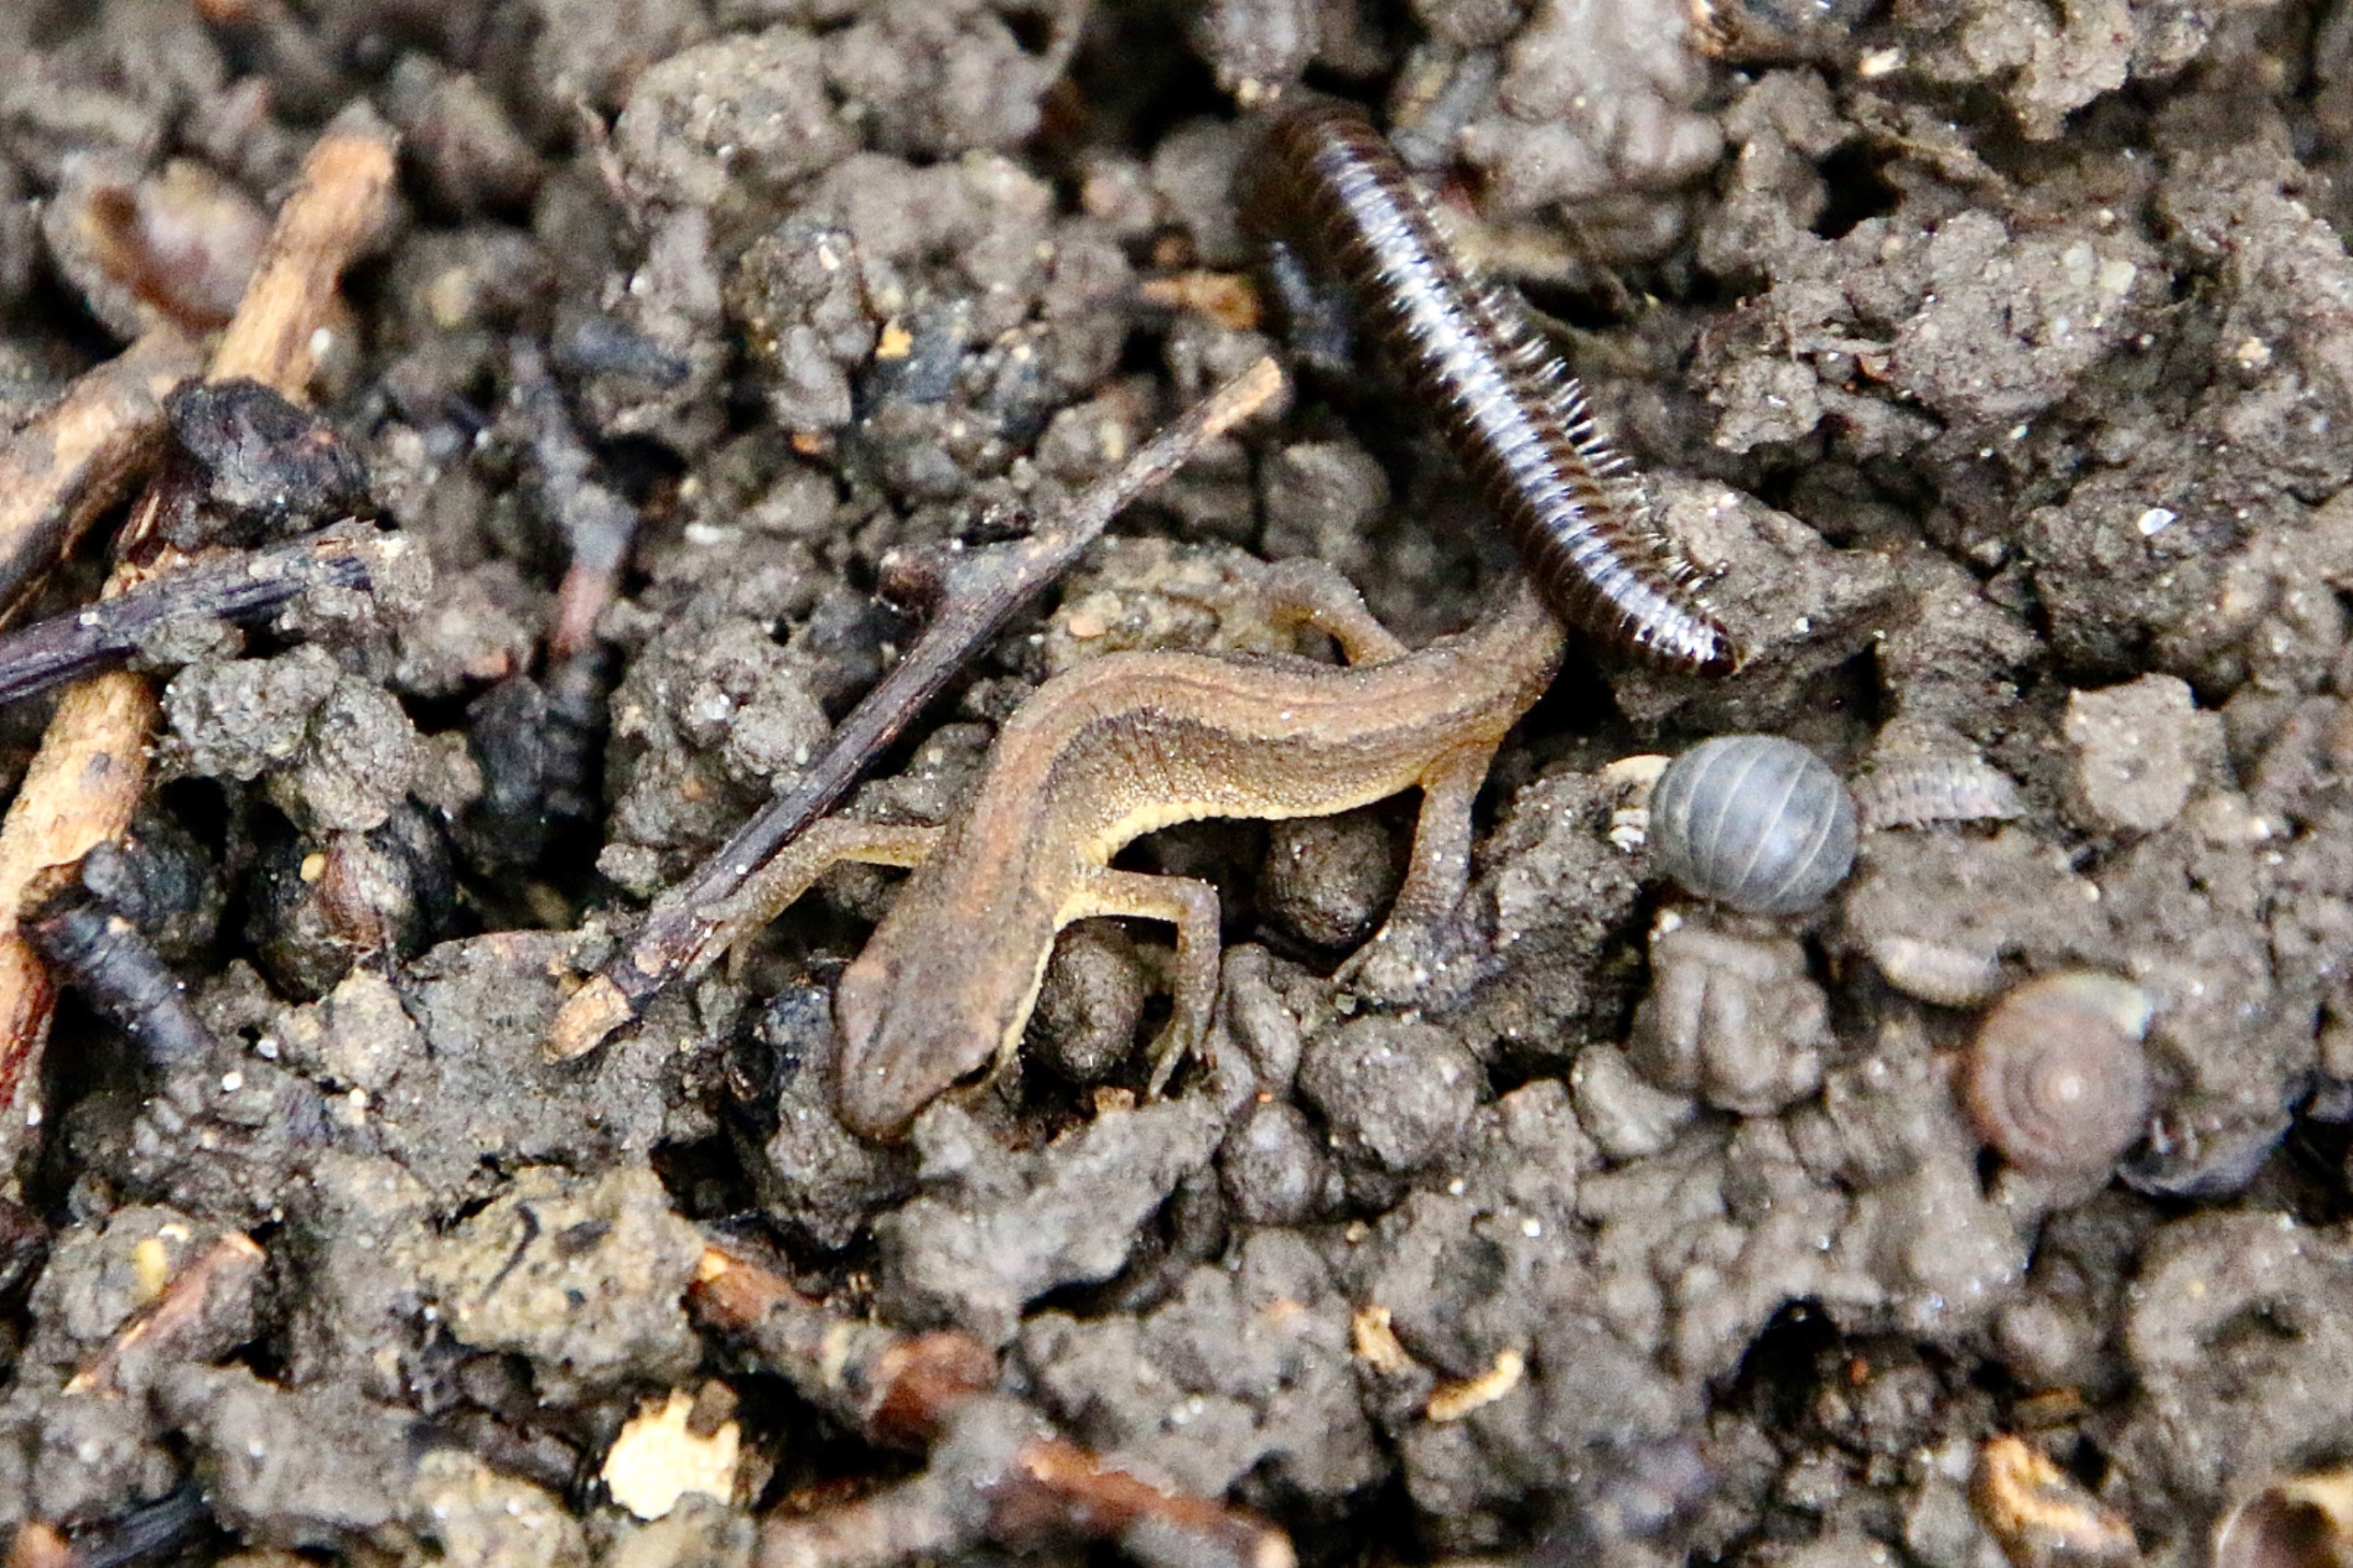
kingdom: Animalia
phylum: Chordata
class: Amphibia
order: Caudata
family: Salamandridae
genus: Lissotriton
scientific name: Lissotriton vulgaris
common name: Lille vandsalamander
